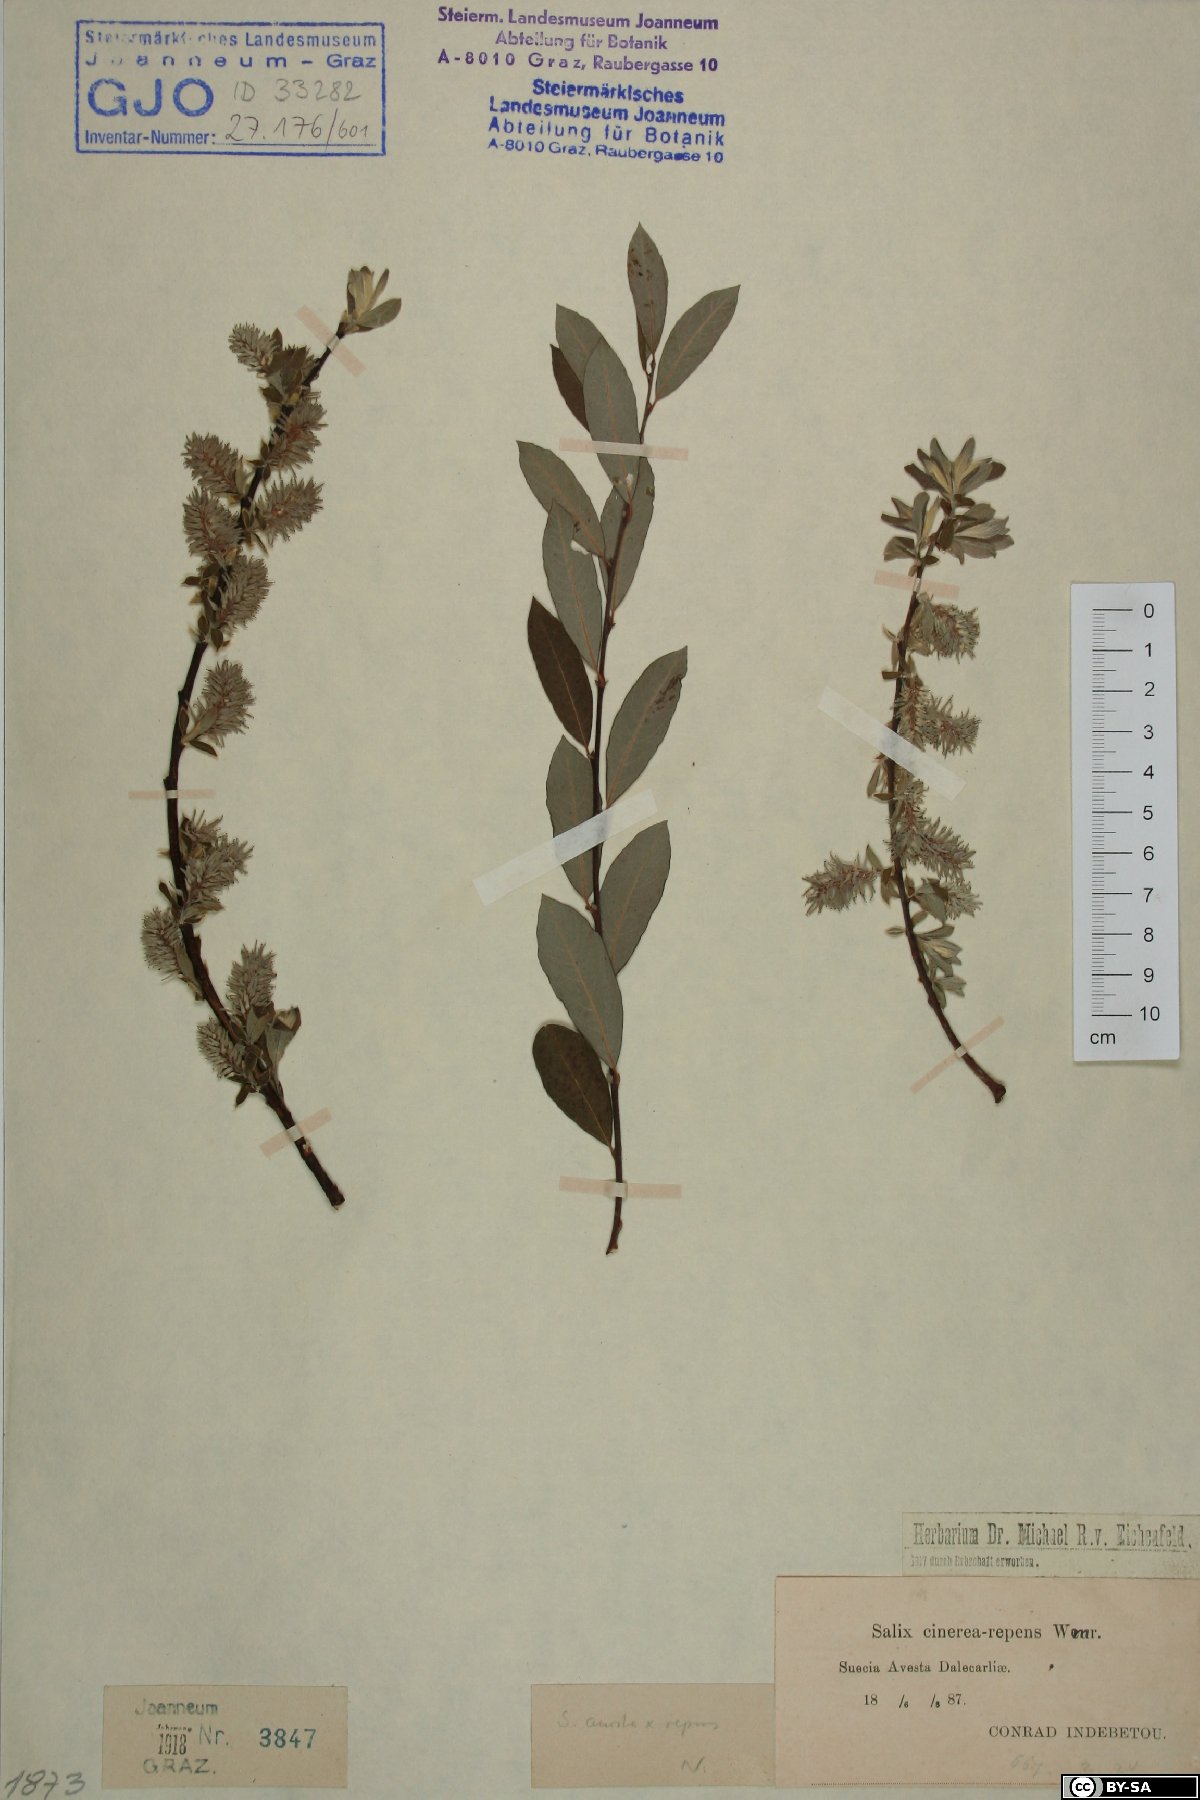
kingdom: Plantae
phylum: Tracheophyta
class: Magnoliopsida
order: Malpighiales
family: Salicaceae
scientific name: Salicaceae
